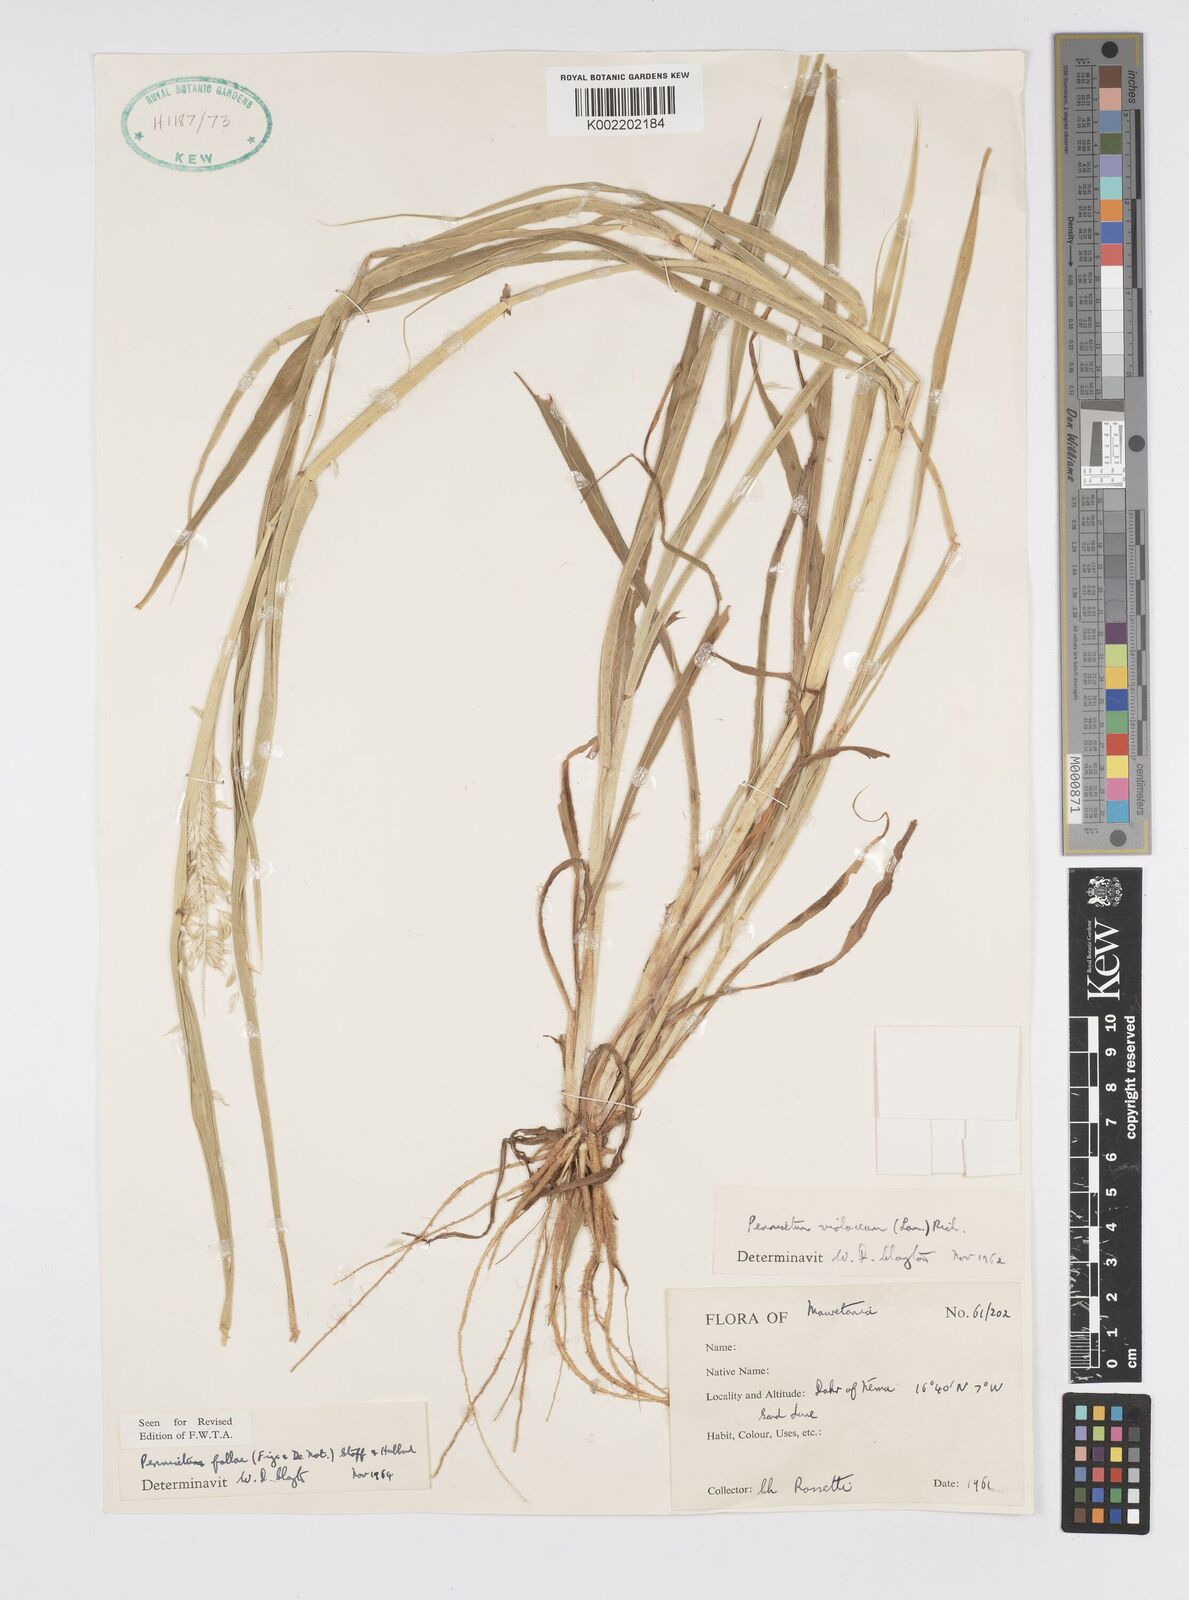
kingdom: Plantae
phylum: Tracheophyta
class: Liliopsida
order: Poales
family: Poaceae
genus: Cenchrus
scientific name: Cenchrus violaceus
